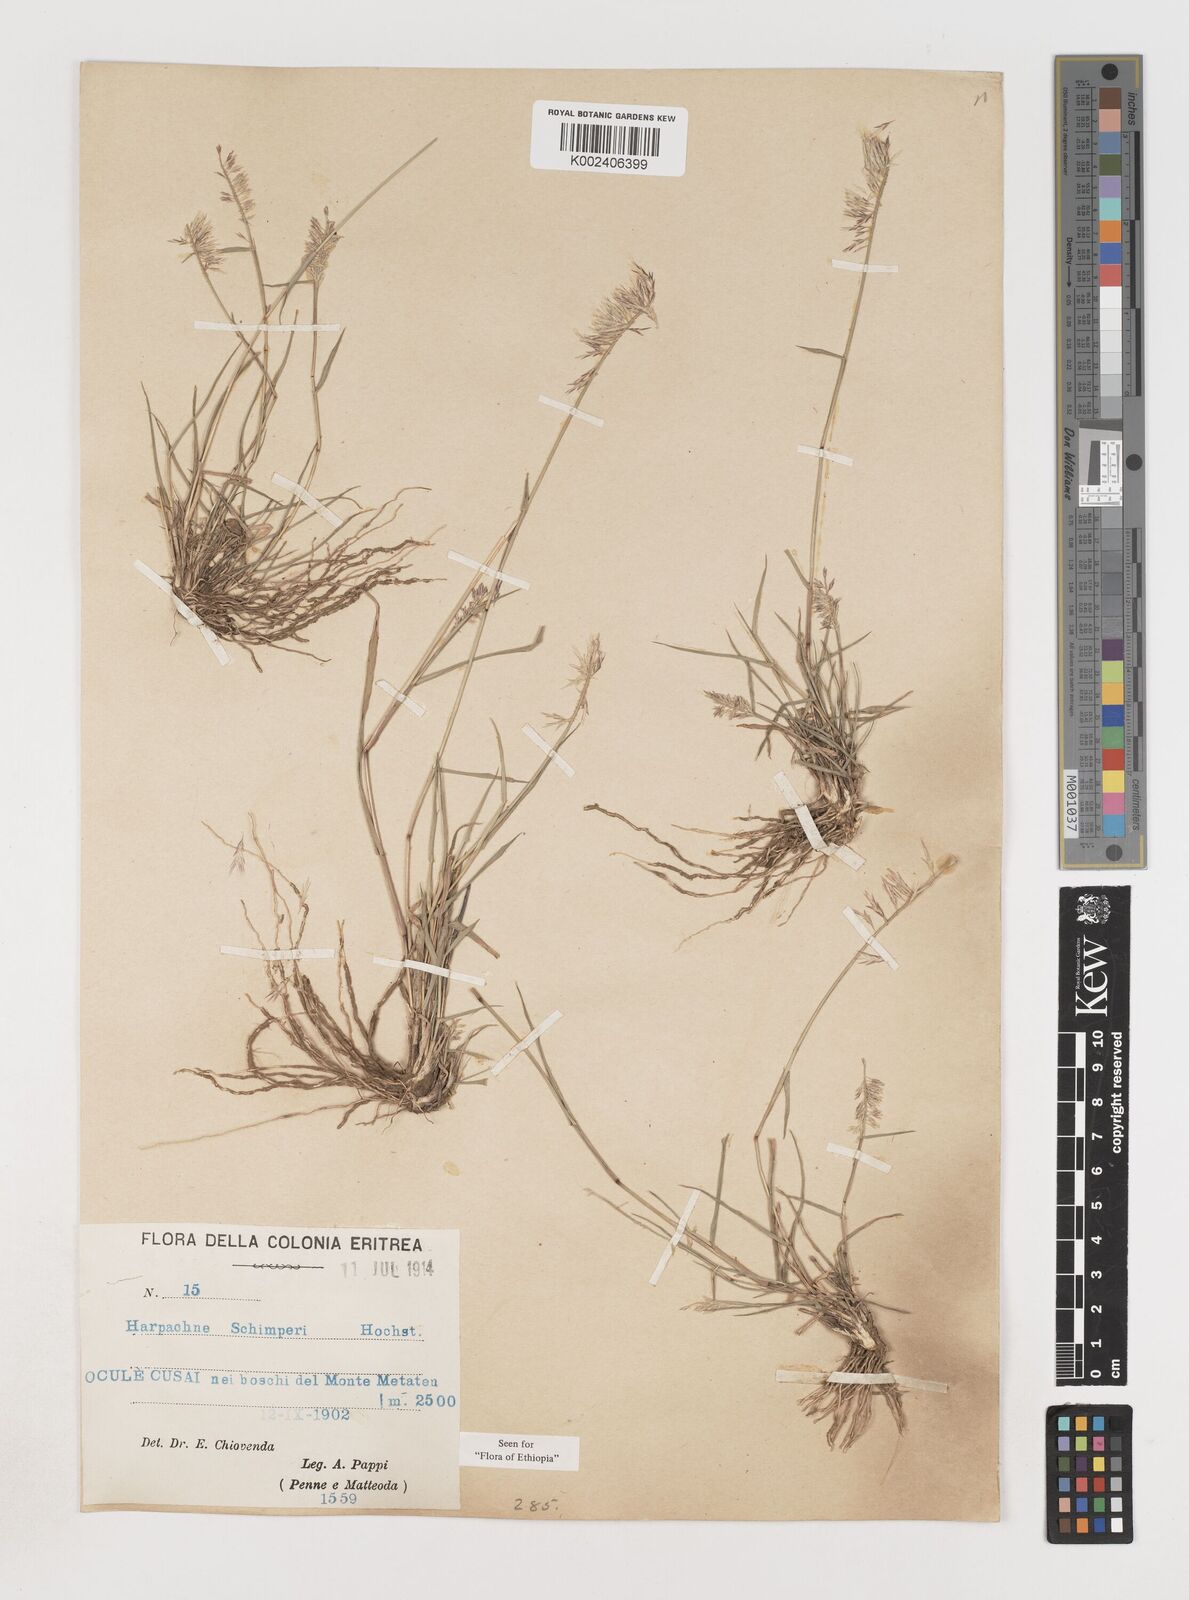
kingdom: Plantae
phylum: Tracheophyta
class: Liliopsida
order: Poales
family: Poaceae
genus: Harpachne
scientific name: Harpachne schimperi
